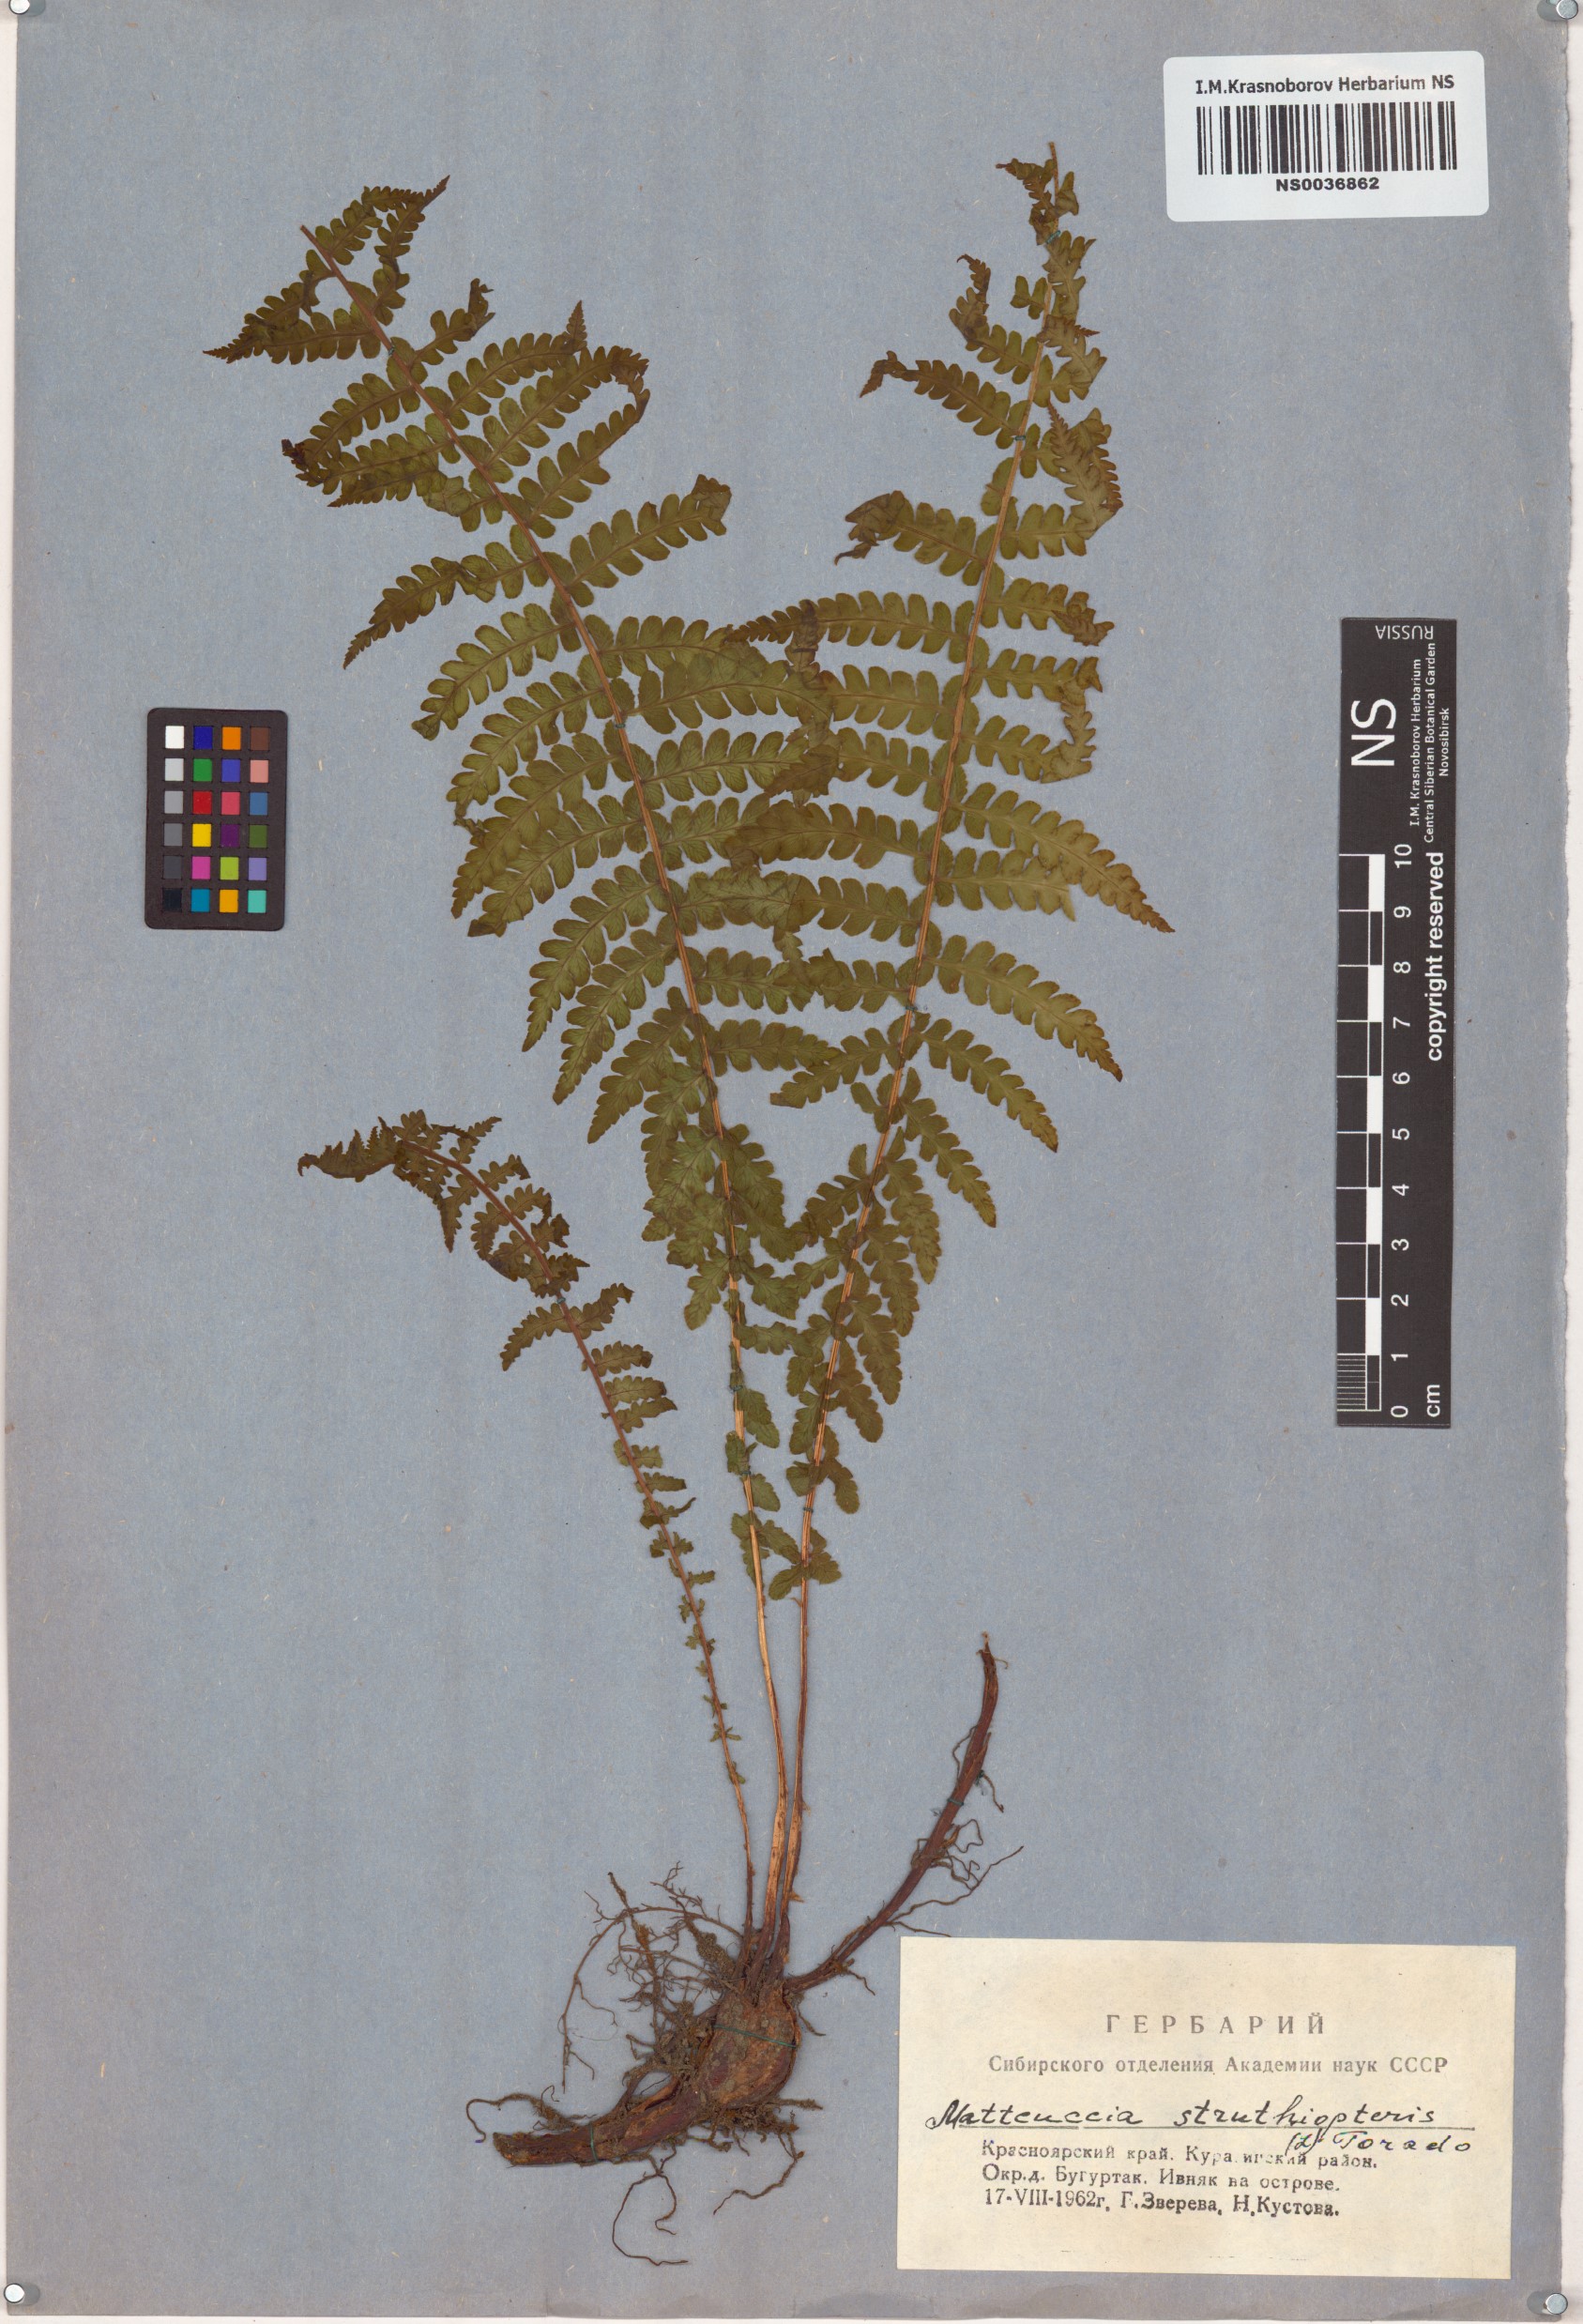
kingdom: Plantae
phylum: Tracheophyta
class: Polypodiopsida
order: Polypodiales
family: Onocleaceae
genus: Matteuccia
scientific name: Matteuccia struthiopteris
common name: Ostrich fern
